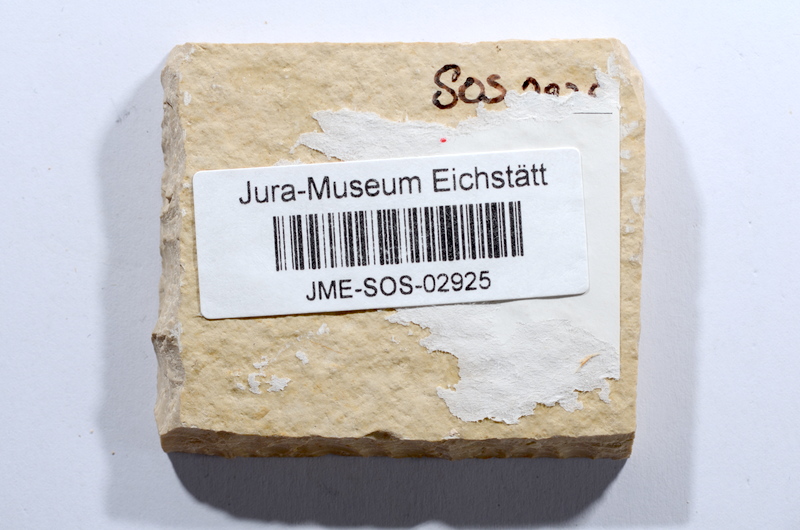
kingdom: Animalia
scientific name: Animalia
